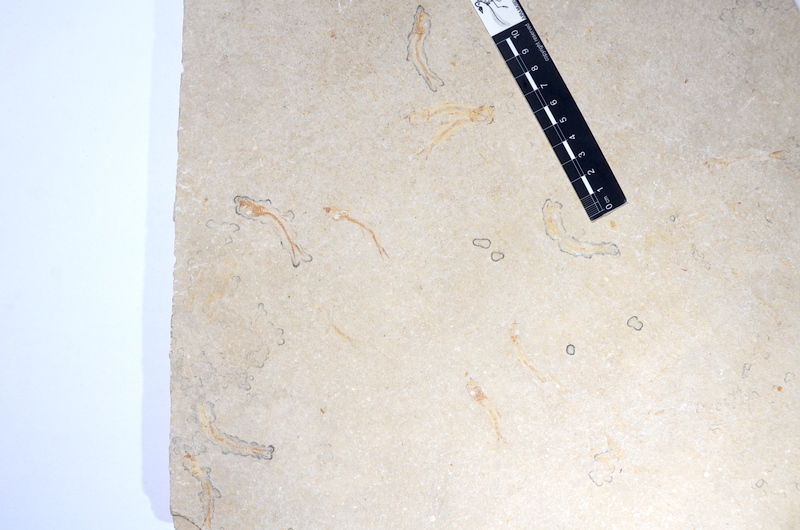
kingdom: Animalia
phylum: Chordata
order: Salmoniformes
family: Orthogonikleithridae
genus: Leptolepides
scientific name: Leptolepides sprattiformis
